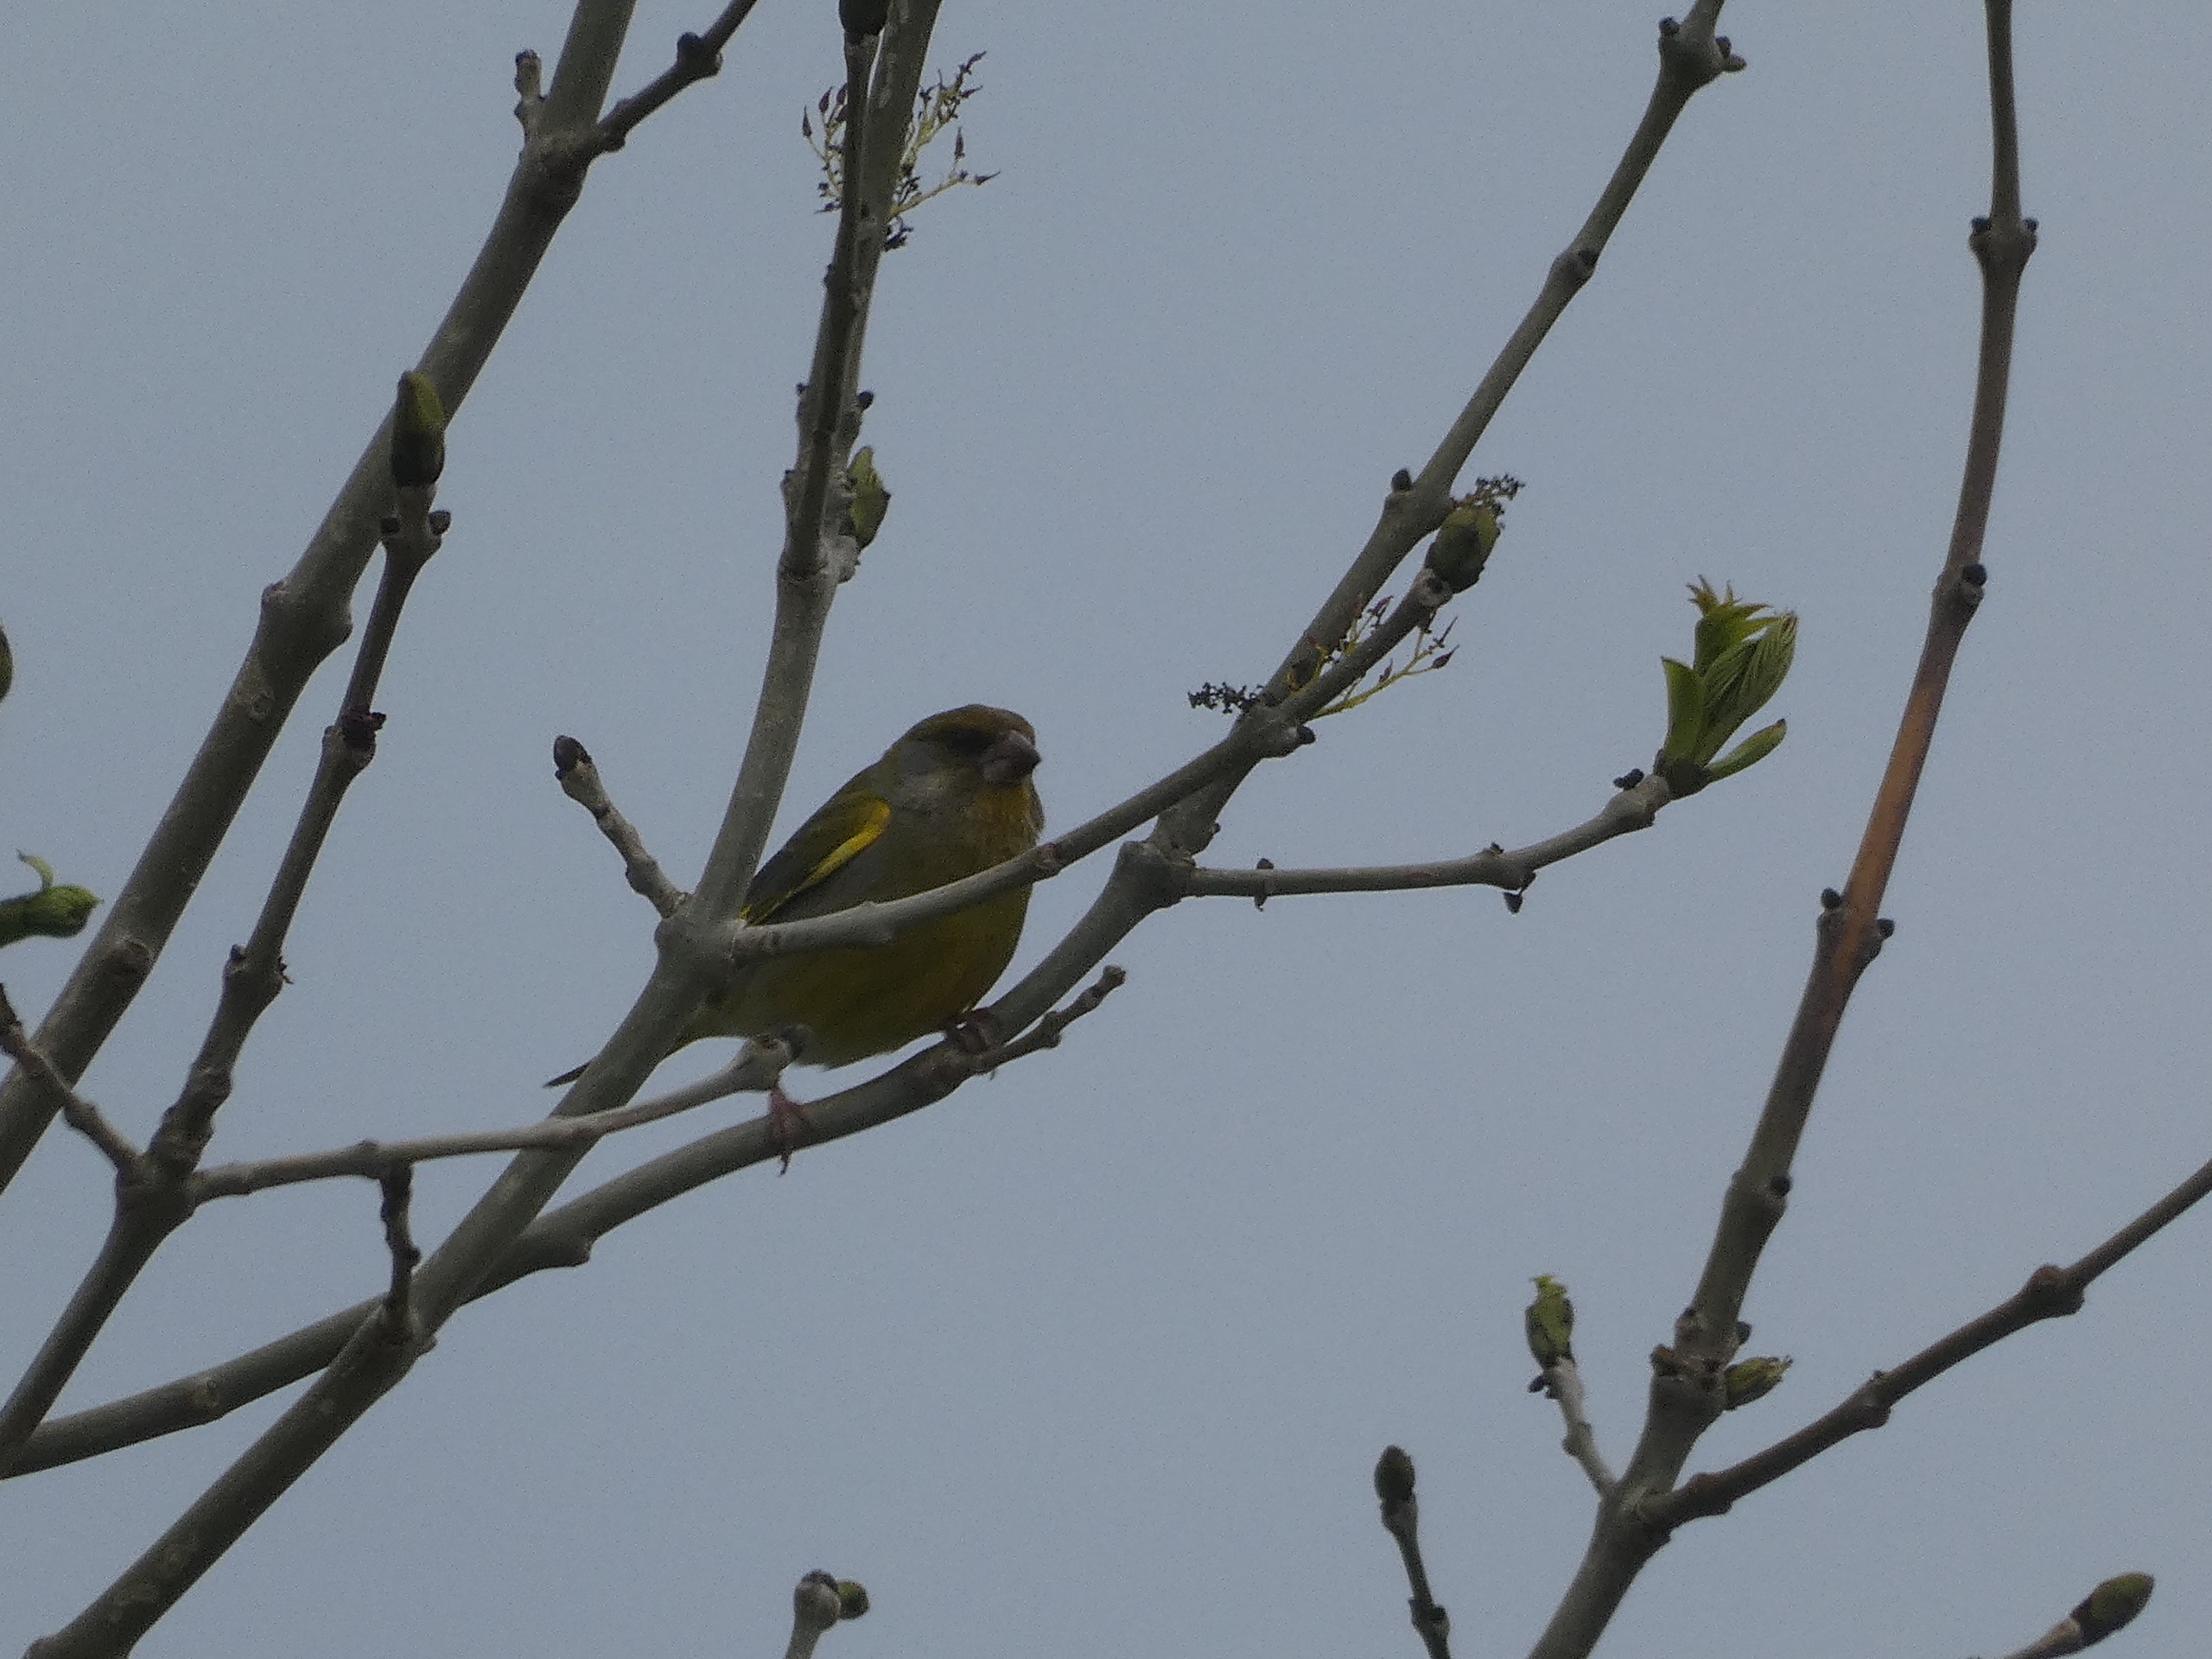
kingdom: Plantae
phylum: Tracheophyta
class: Liliopsida
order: Poales
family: Poaceae
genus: Chloris
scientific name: Chloris chloris
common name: Grønirisk
